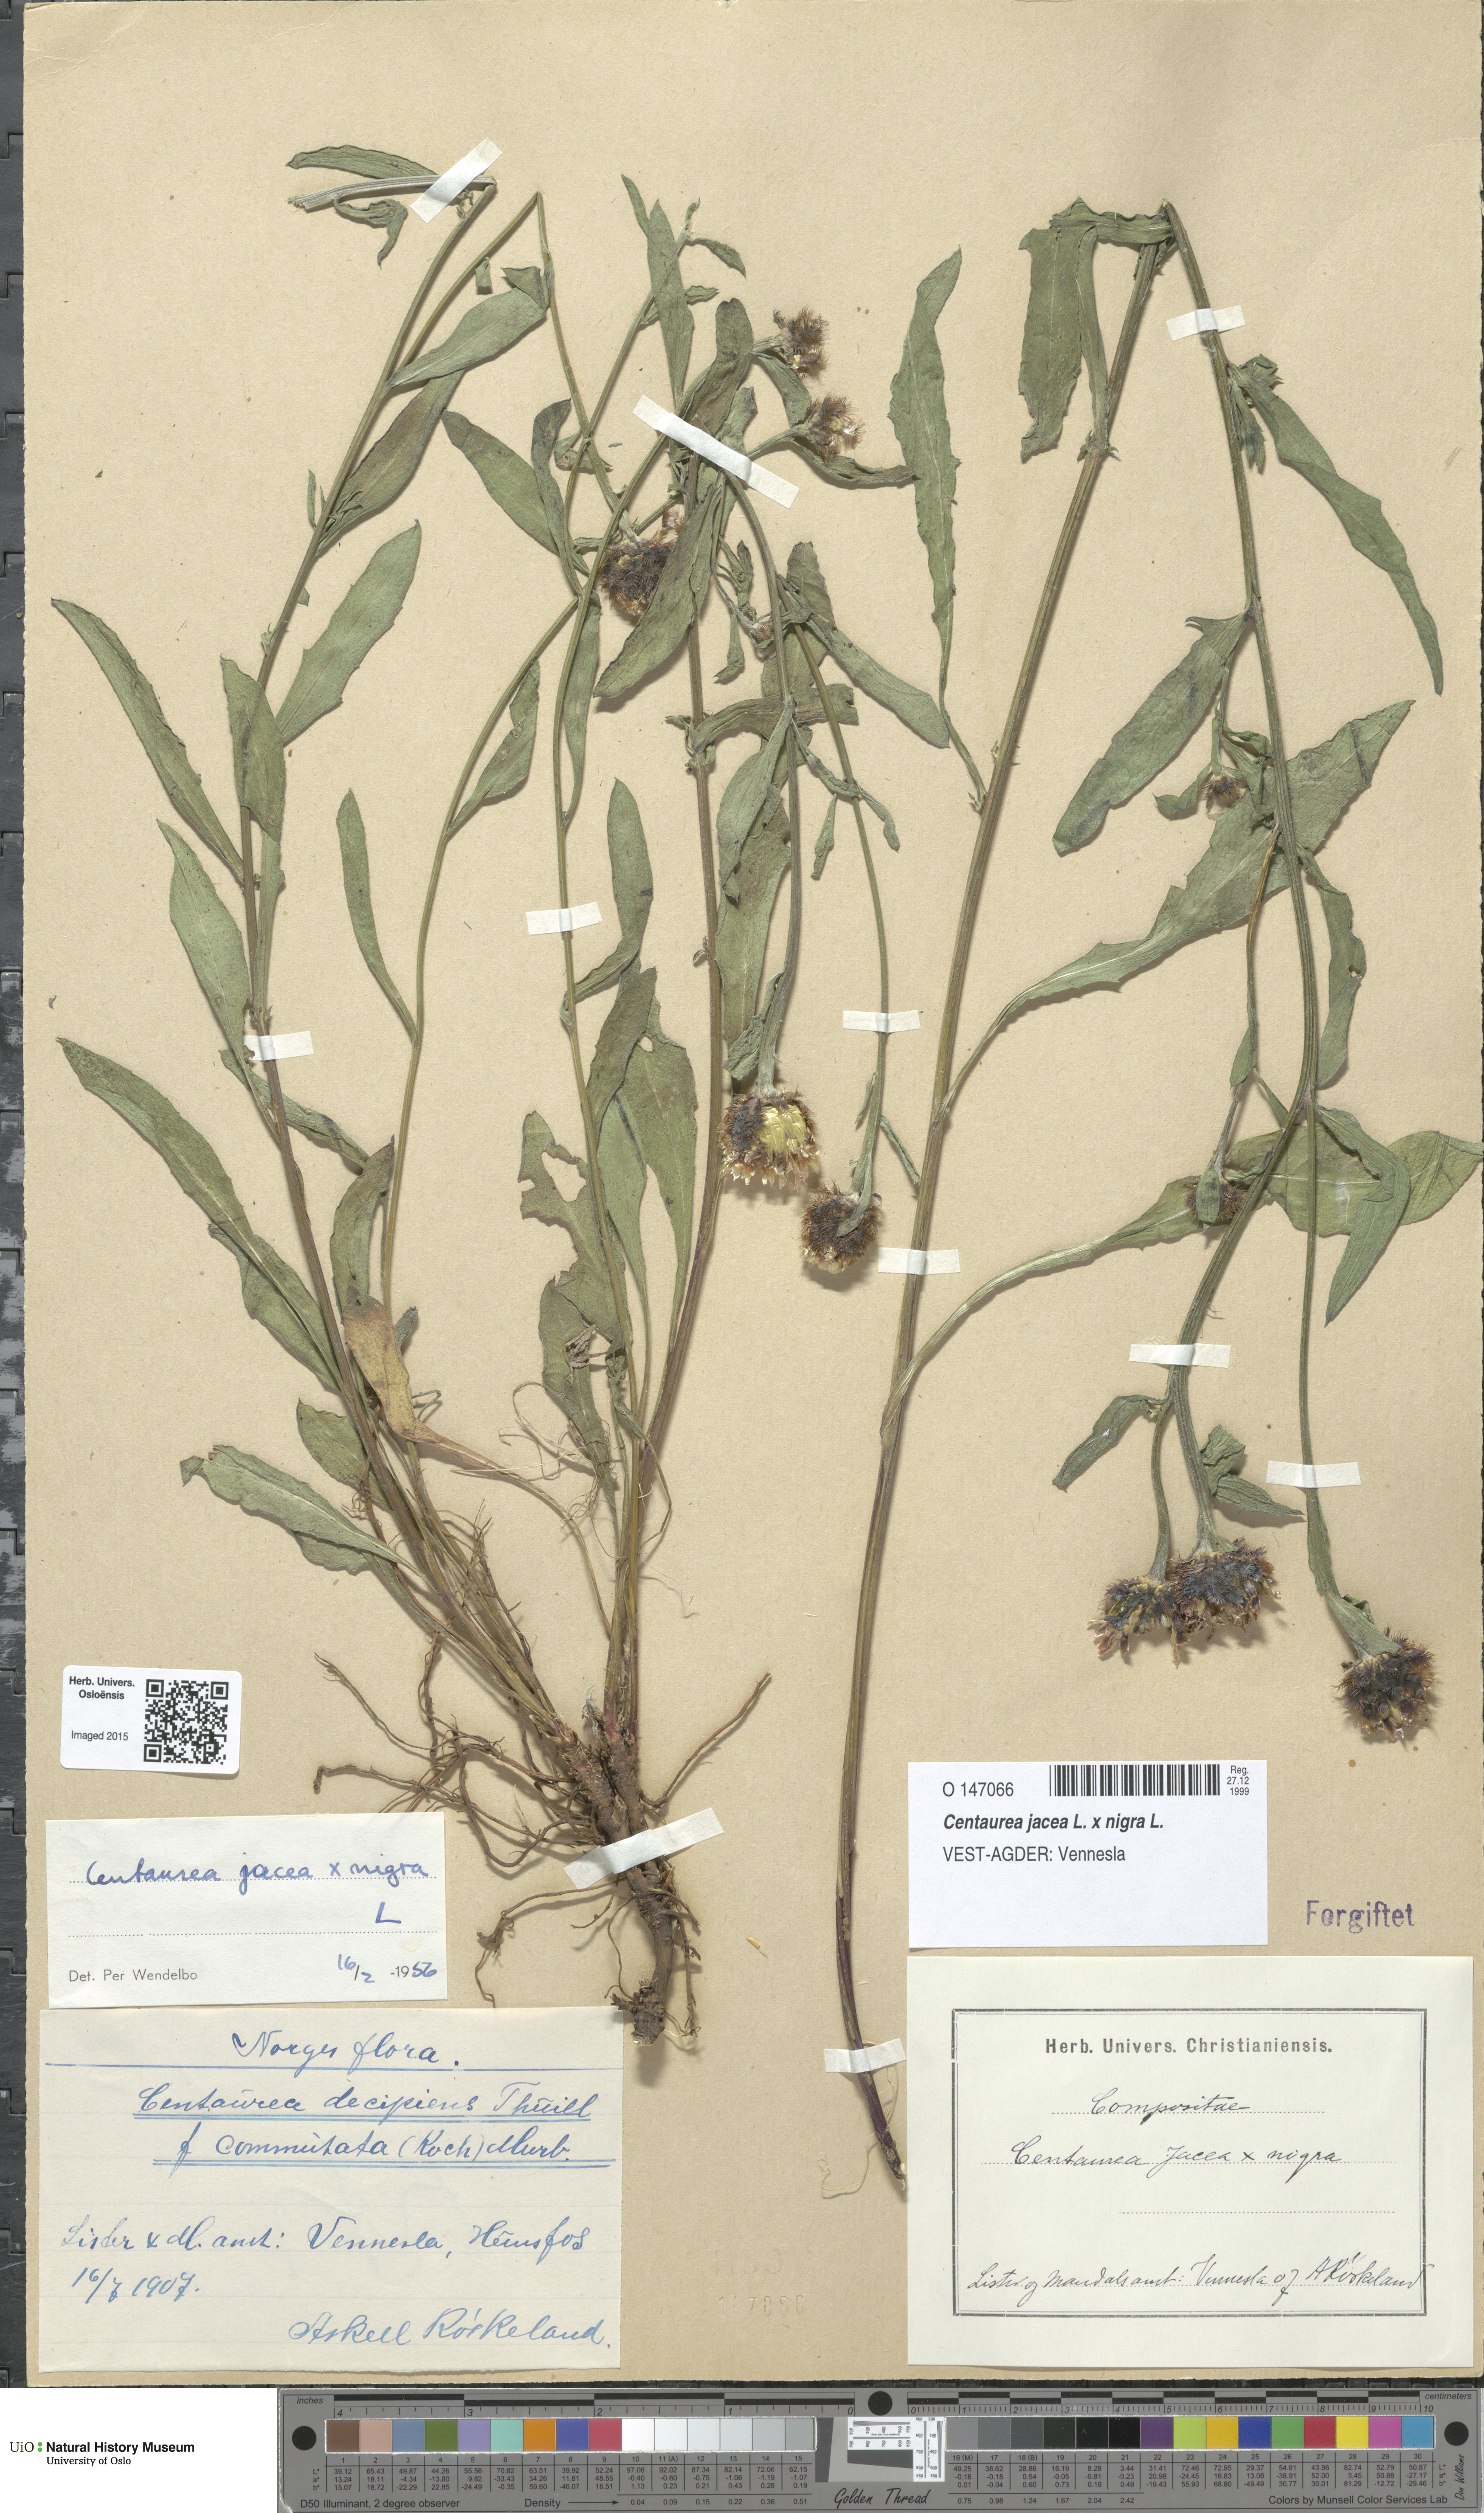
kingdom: Plantae
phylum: Tracheophyta
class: Magnoliopsida
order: Asterales
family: Asteraceae
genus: Centaurea
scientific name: Centaurea
